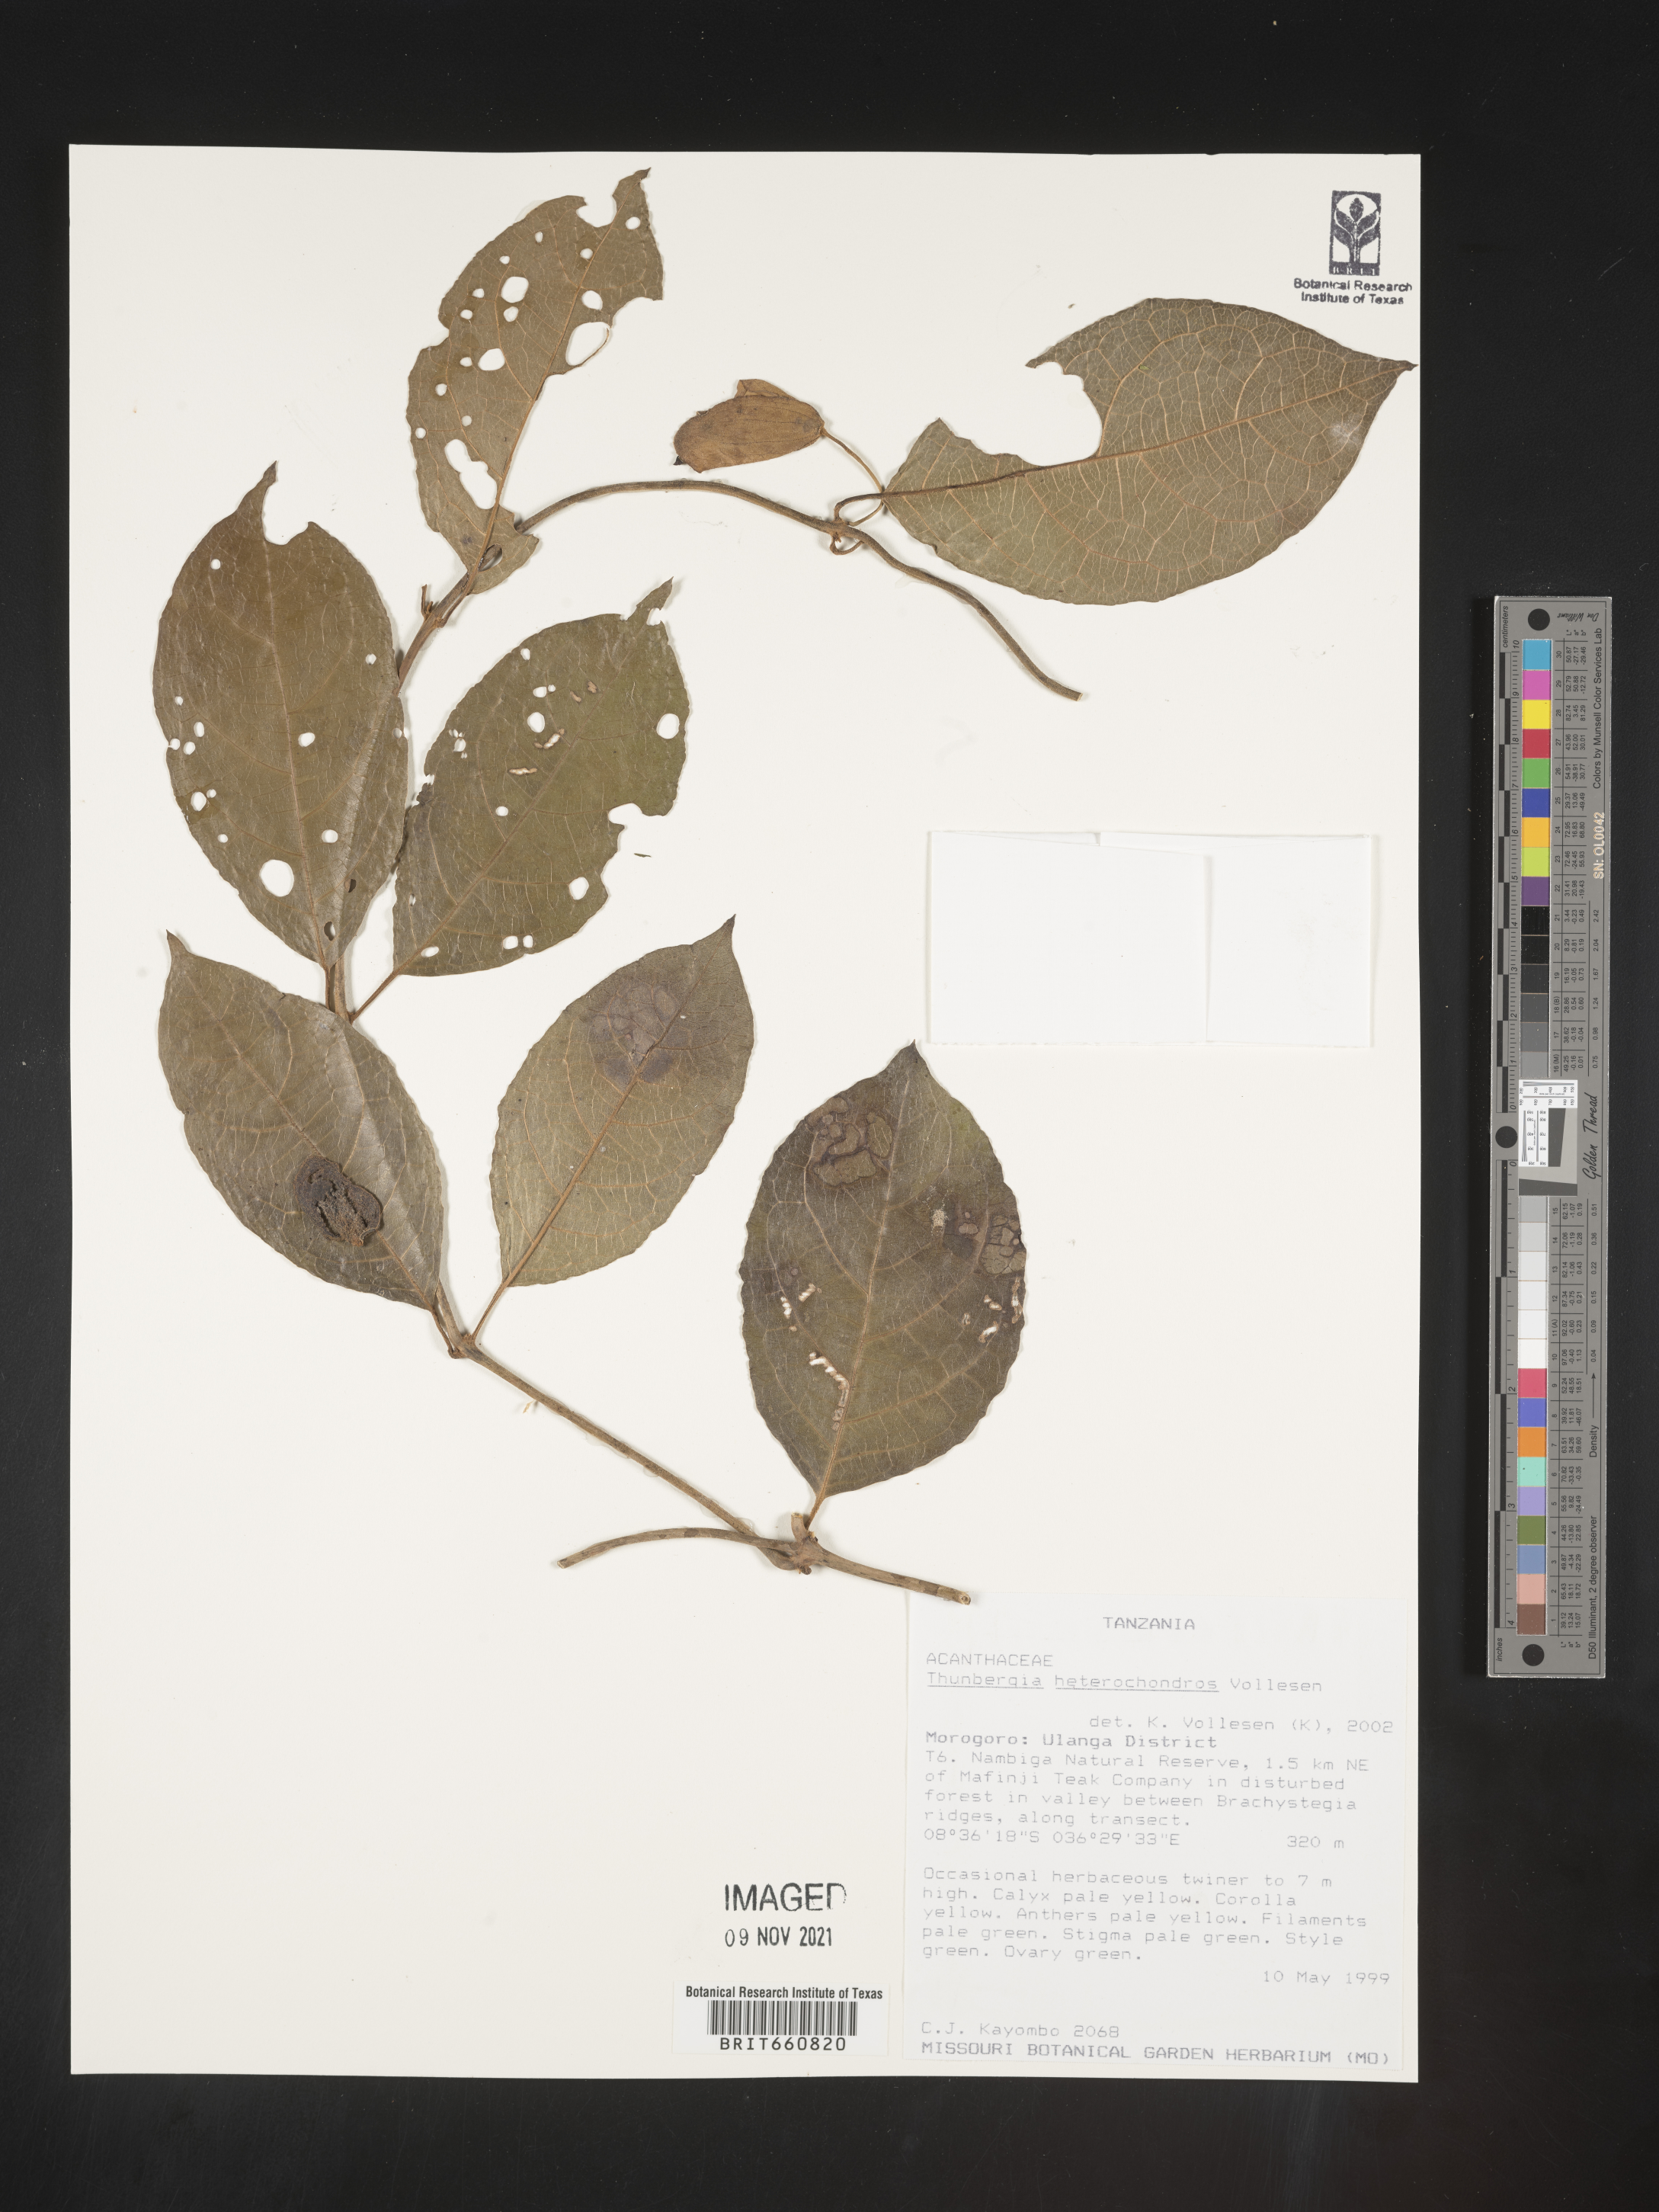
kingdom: Plantae
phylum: Tracheophyta
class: Magnoliopsida
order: Lamiales
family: Acanthaceae
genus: Thunbergia
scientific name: Thunbergia
